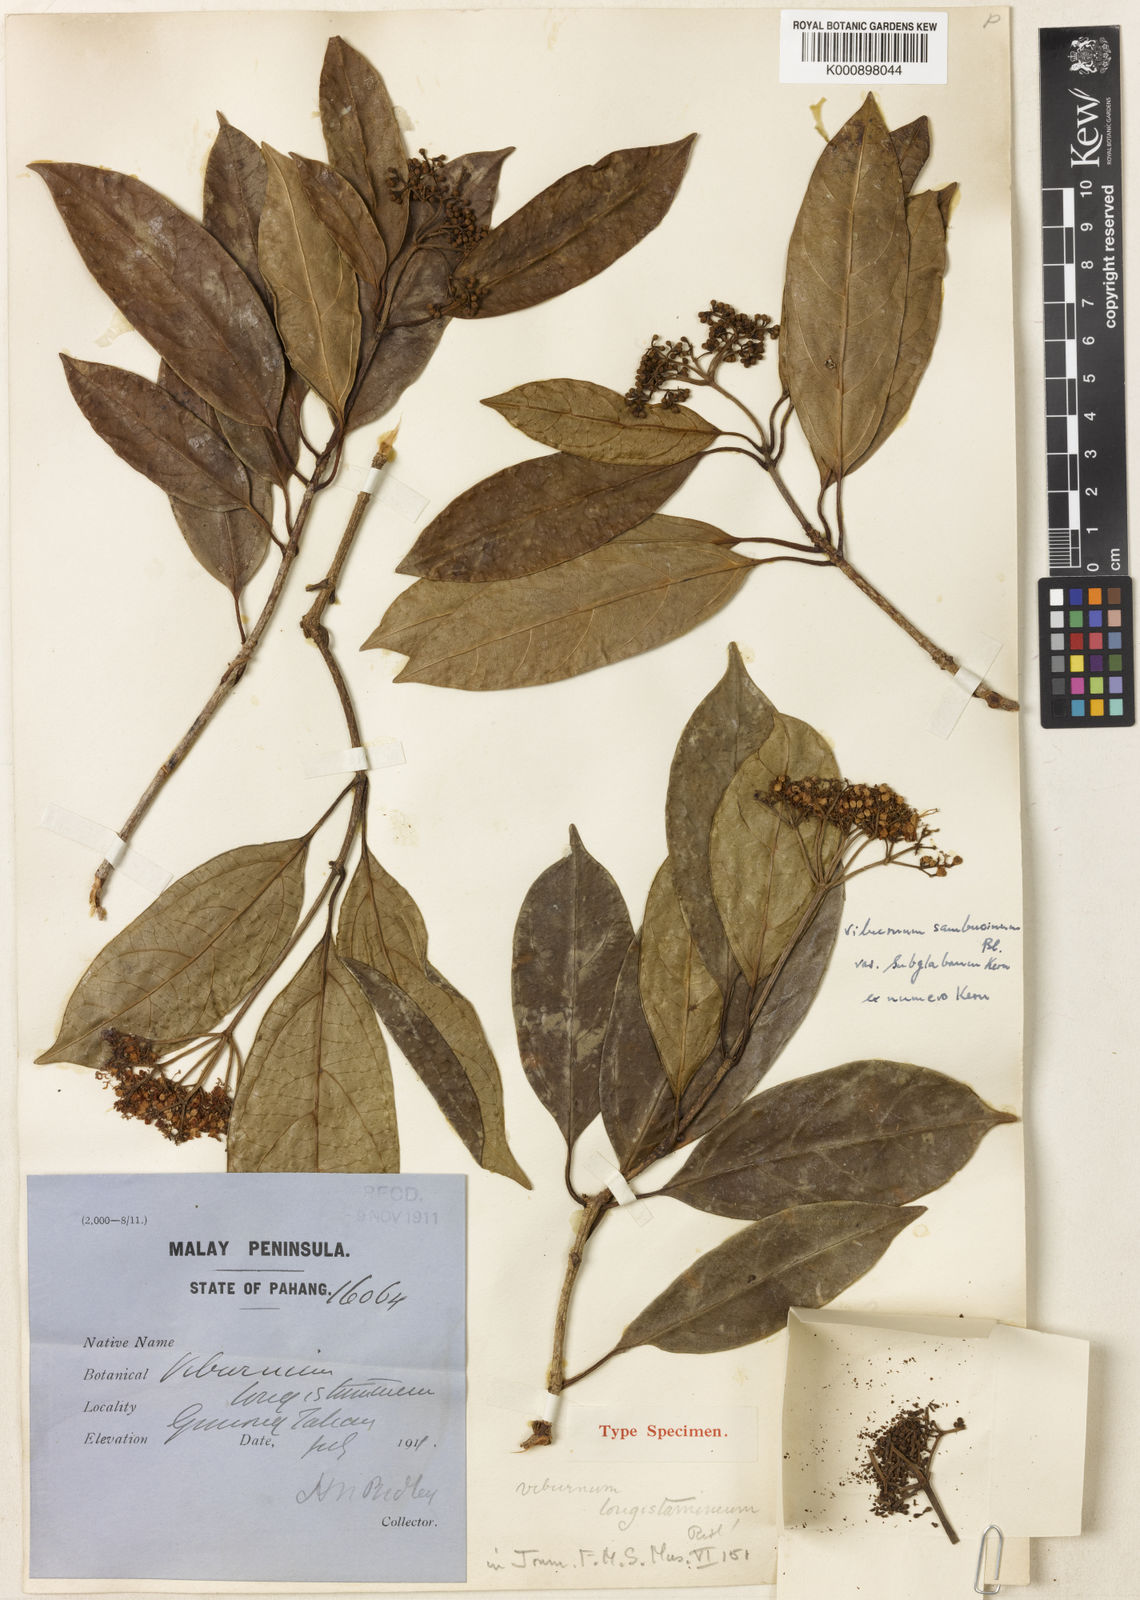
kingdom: Plantae
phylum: Tracheophyta
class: Magnoliopsida
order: Dipsacales
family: Viburnaceae
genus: Viburnum
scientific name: Viburnum sambucinum
